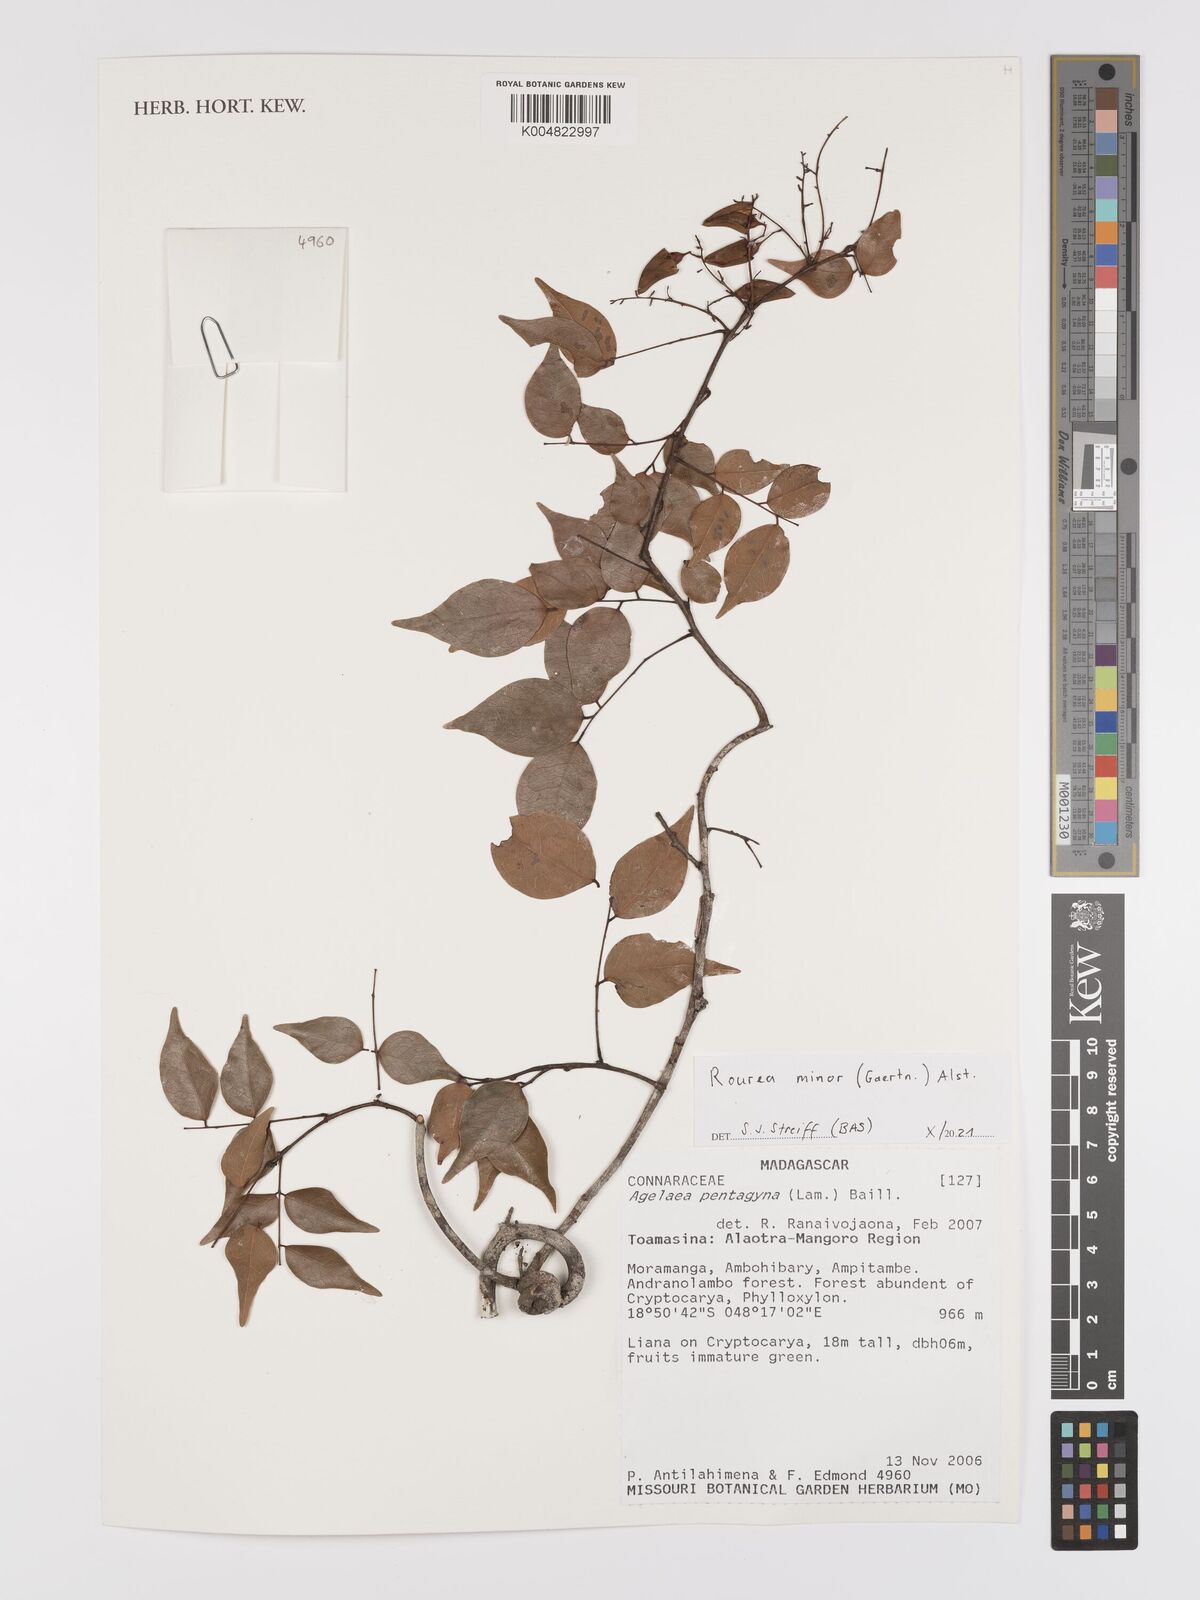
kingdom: Plantae
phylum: Tracheophyta
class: Magnoliopsida
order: Oxalidales
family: Connaraceae
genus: Rourea
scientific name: Rourea minor
